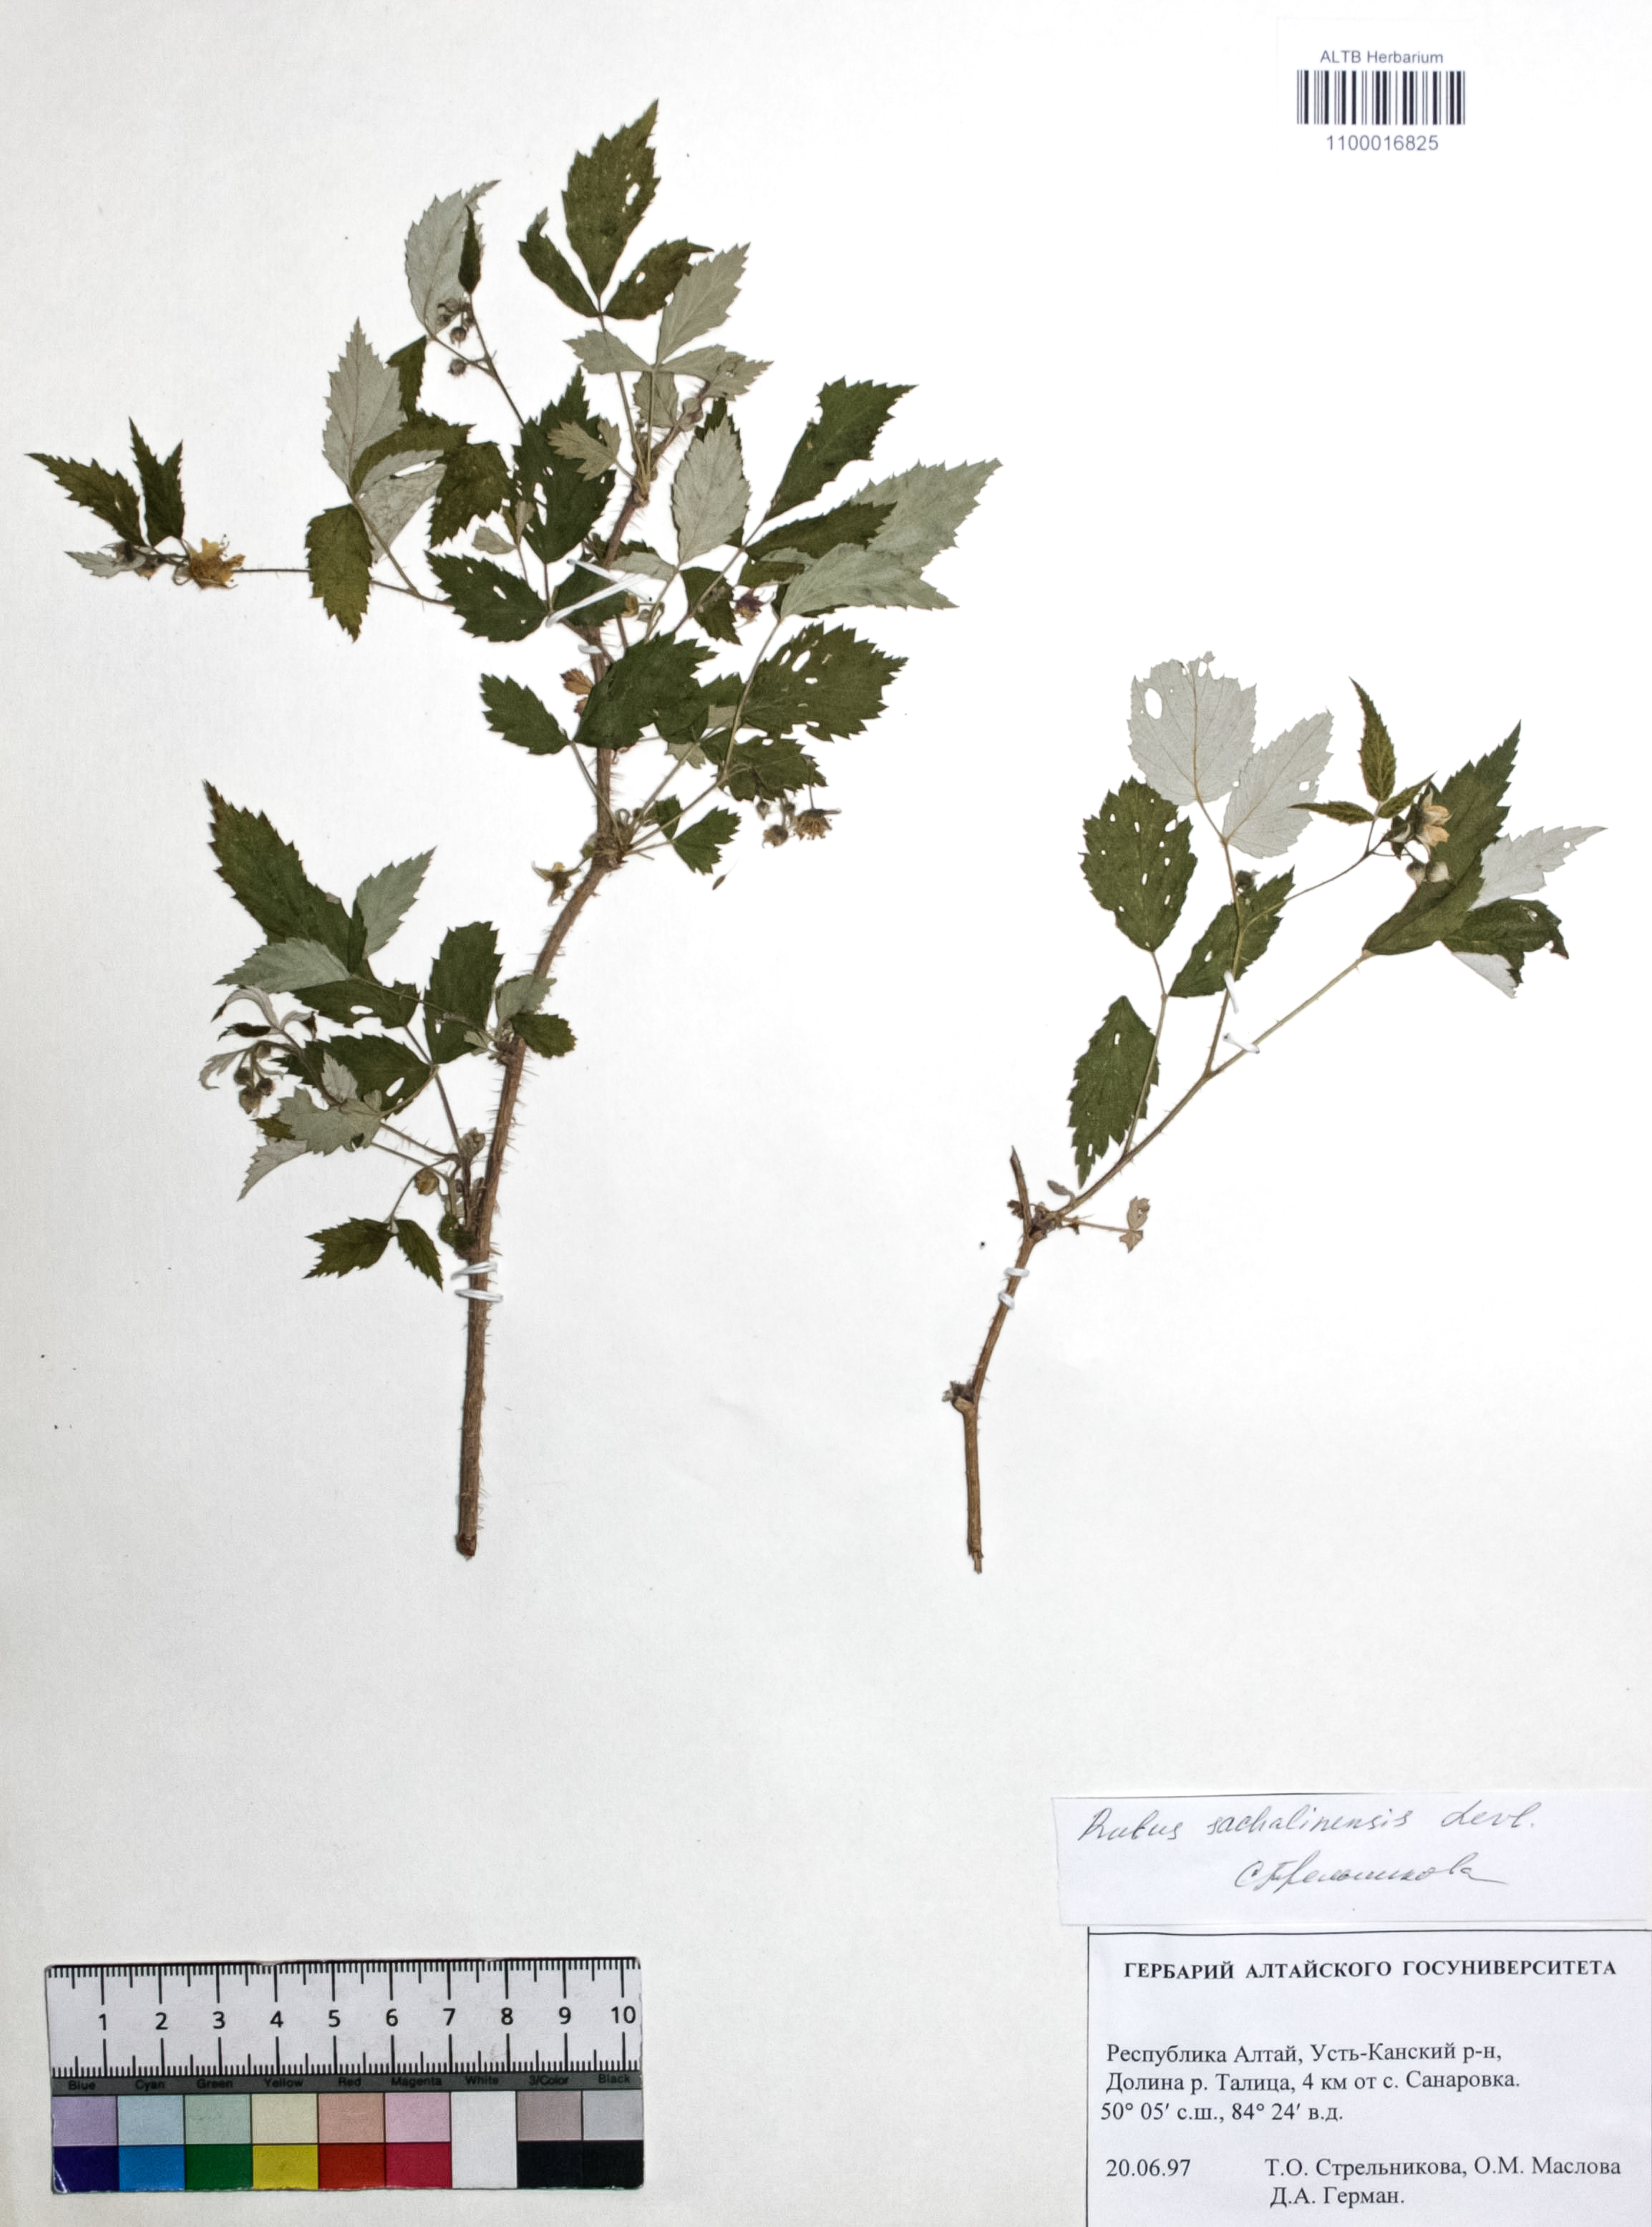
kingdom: Plantae
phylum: Tracheophyta
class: Magnoliopsida
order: Rosales
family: Rosaceae
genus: Rubus
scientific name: Rubus sachalinensis
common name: Red raspberry
